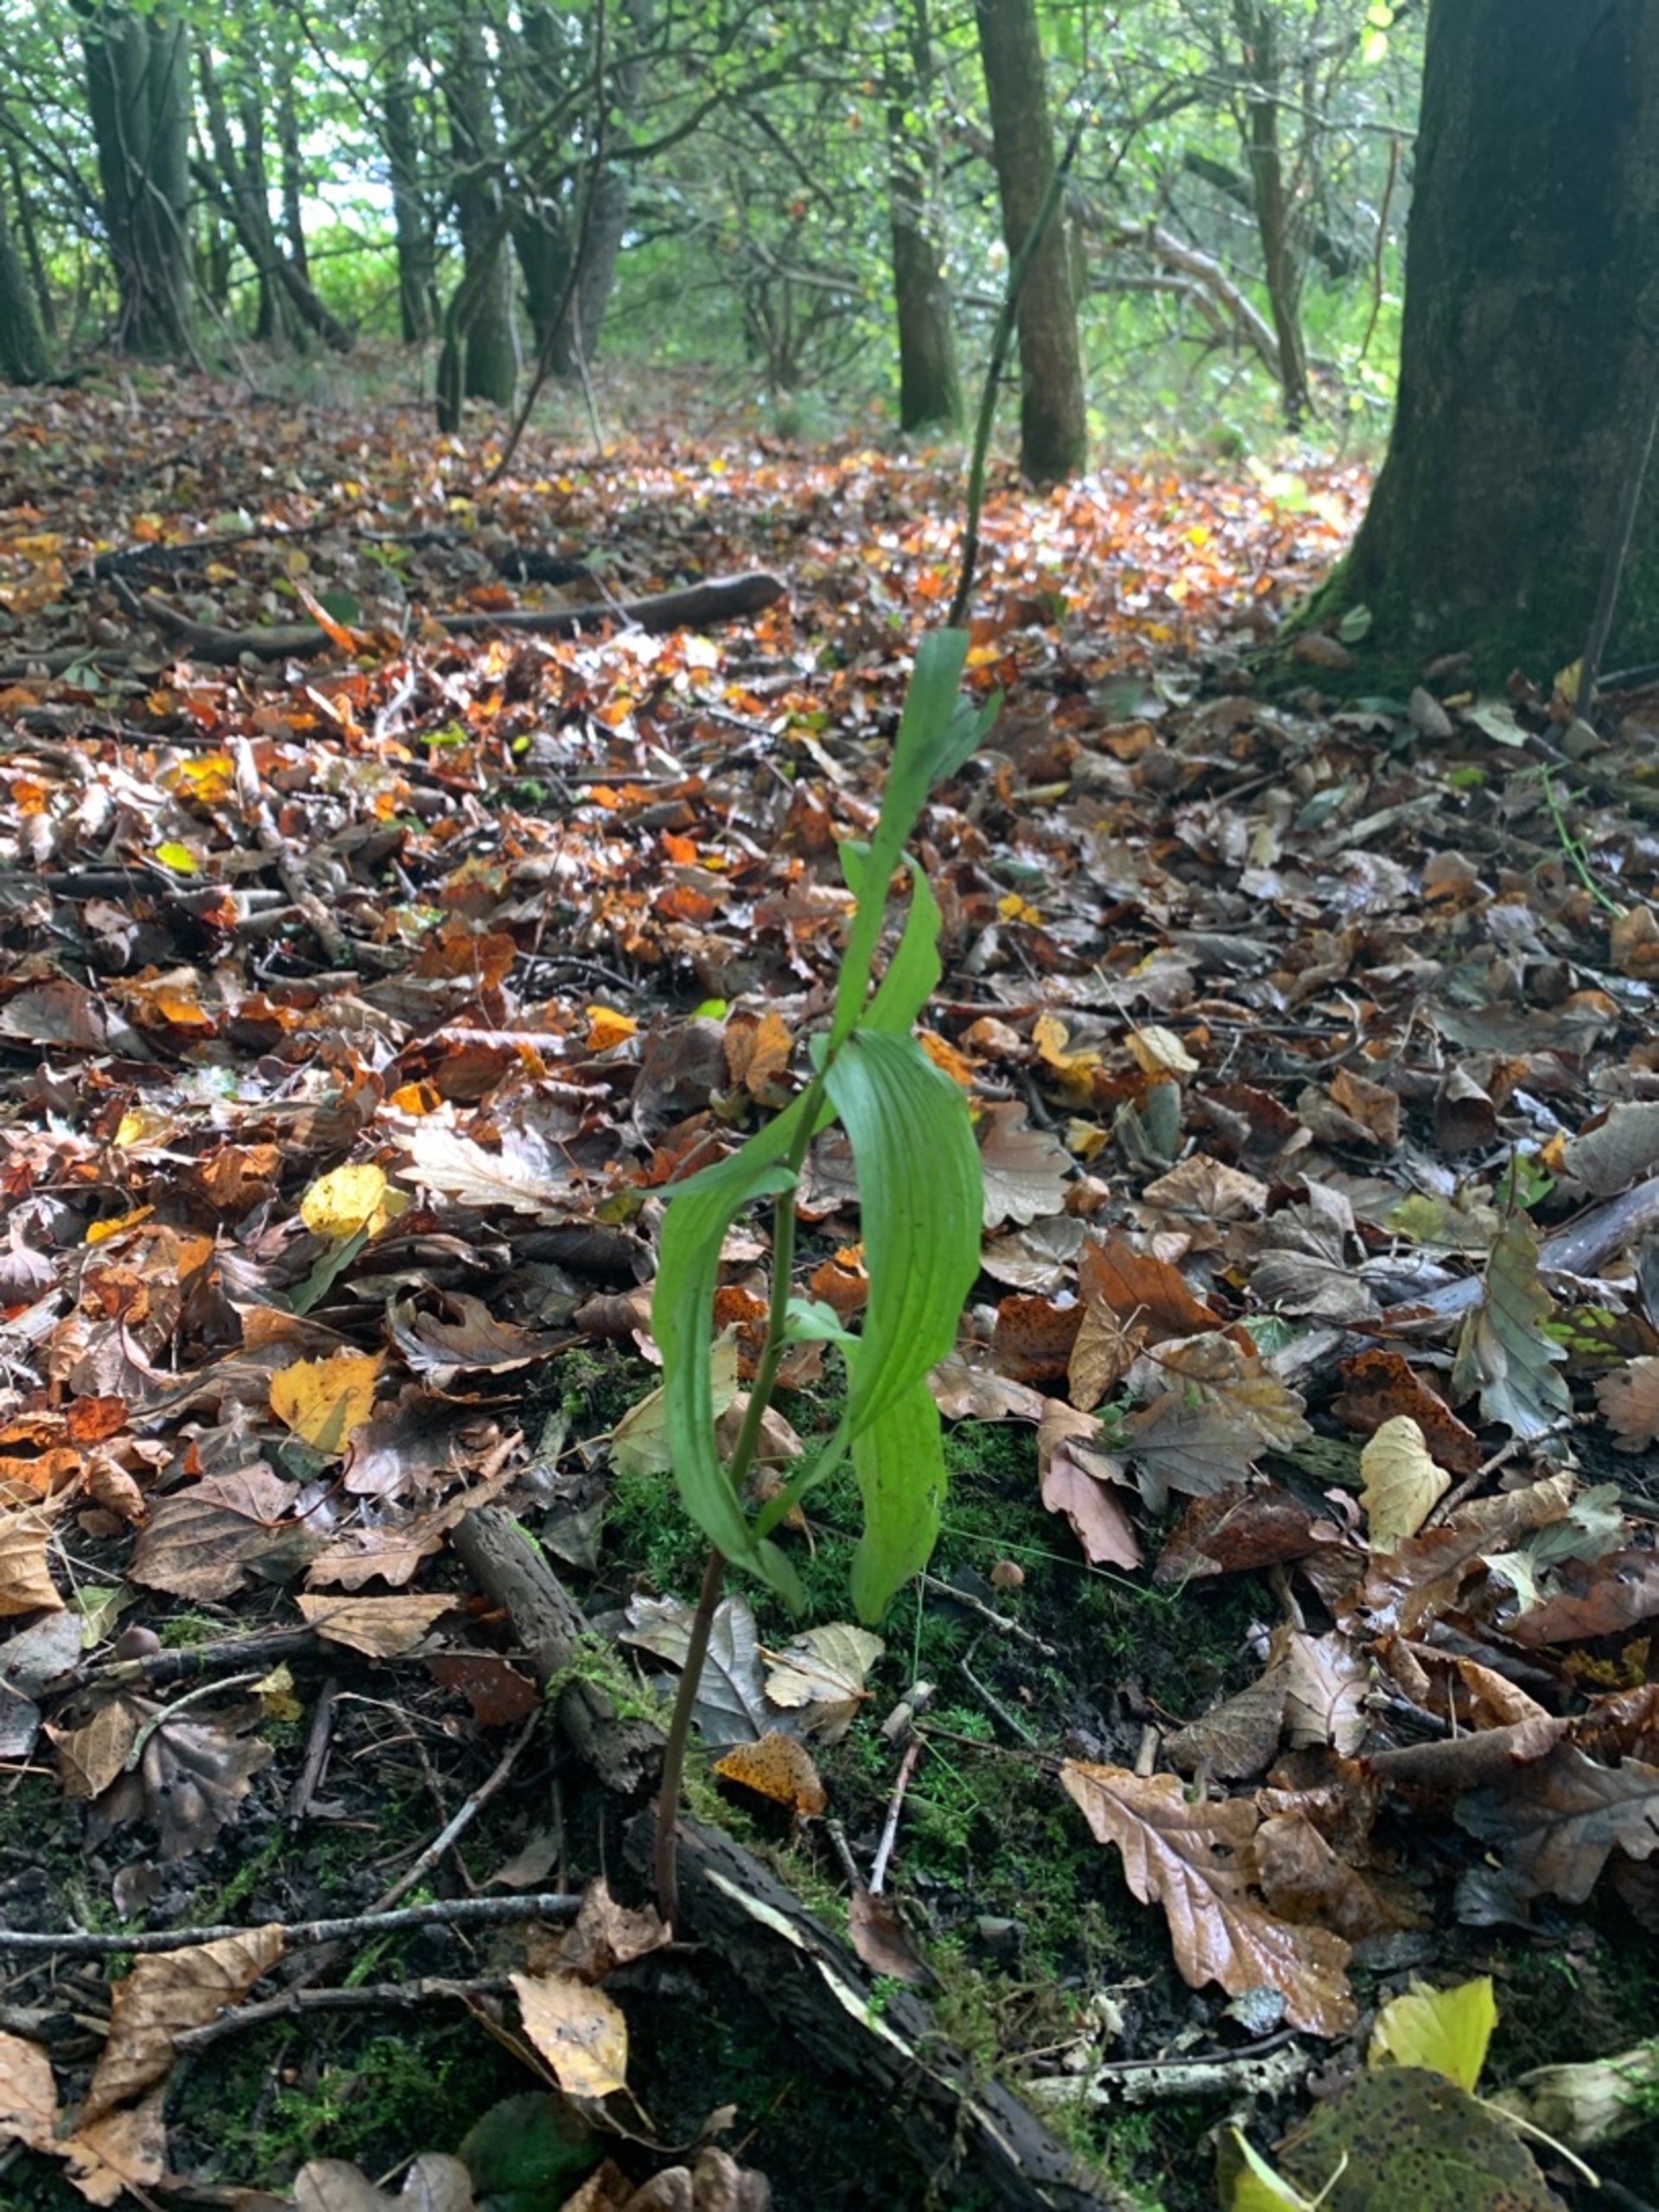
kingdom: Plantae
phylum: Tracheophyta
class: Liliopsida
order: Asparagales
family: Orchidaceae
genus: Epipactis
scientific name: Epipactis helleborine
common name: Skov-hullæbe
